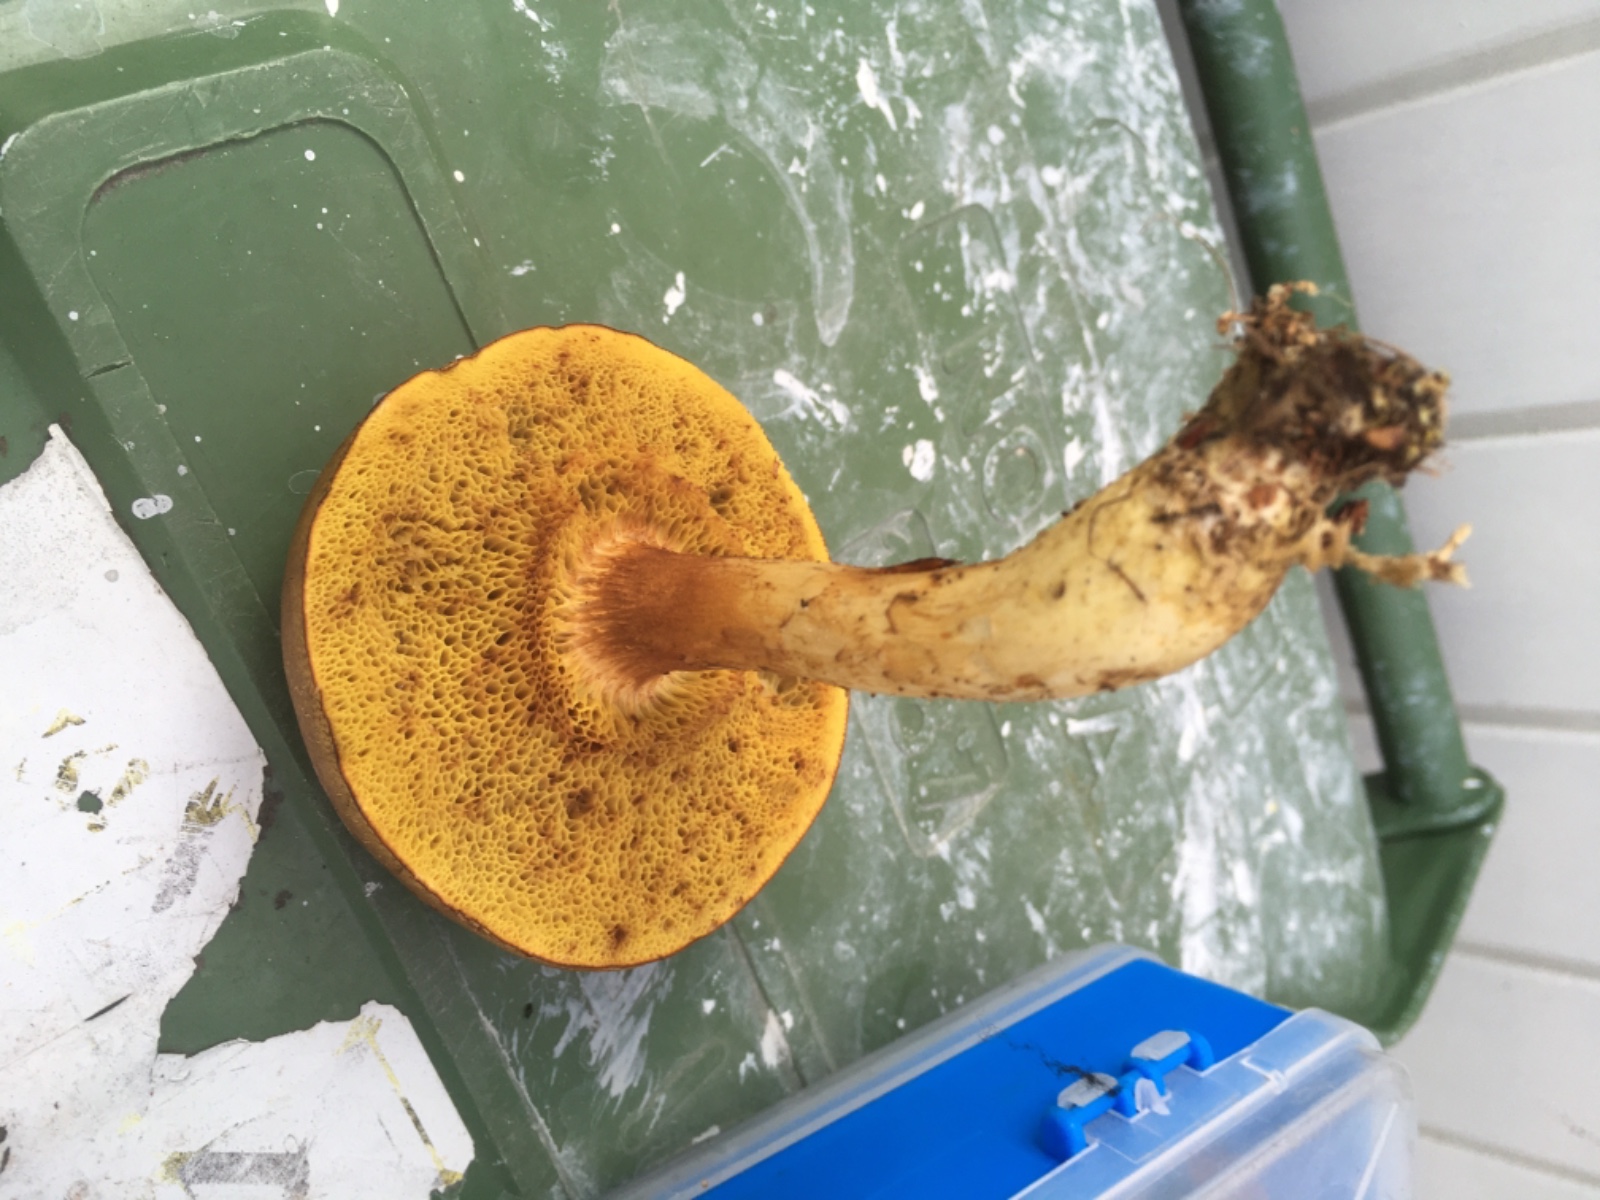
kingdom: Fungi
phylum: Basidiomycota
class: Agaricomycetes
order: Boletales
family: Boletaceae
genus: Xerocomus
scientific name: Xerocomus ferrugineus
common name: vaskeskinds-rørhat
